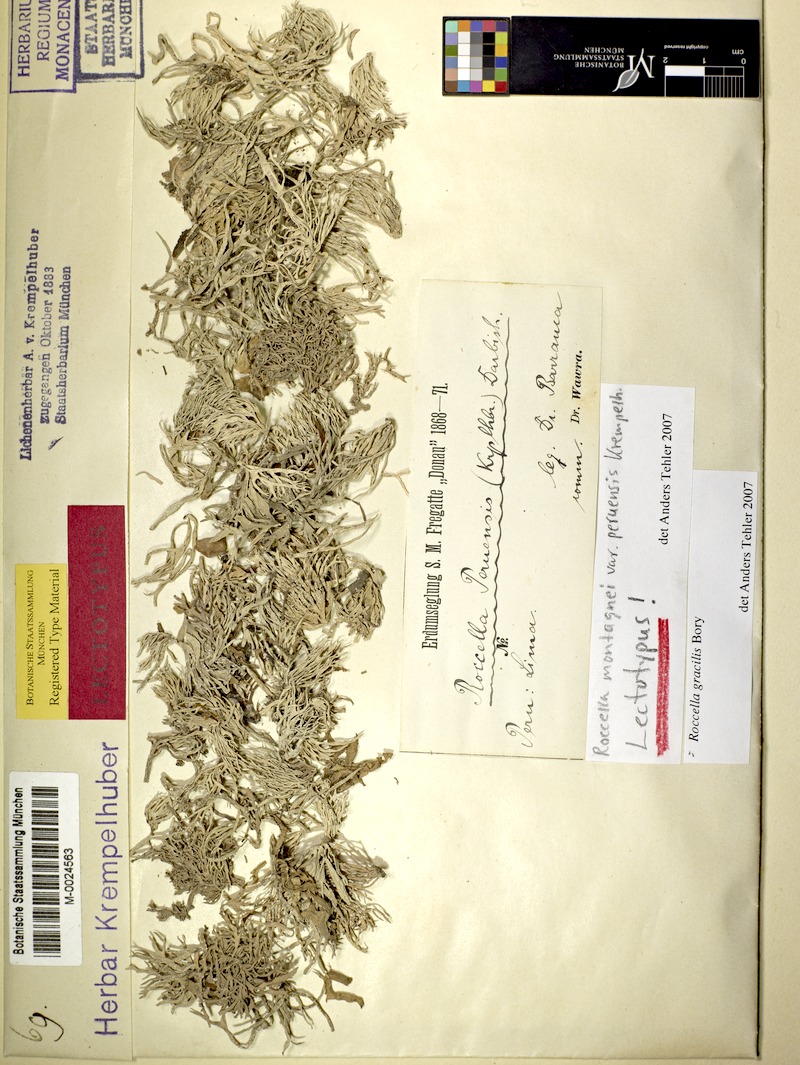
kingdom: Fungi
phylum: Ascomycota
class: Arthoniomycetes
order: Arthoniales
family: Roccellaceae
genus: Roccella
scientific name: Roccella gracilis
